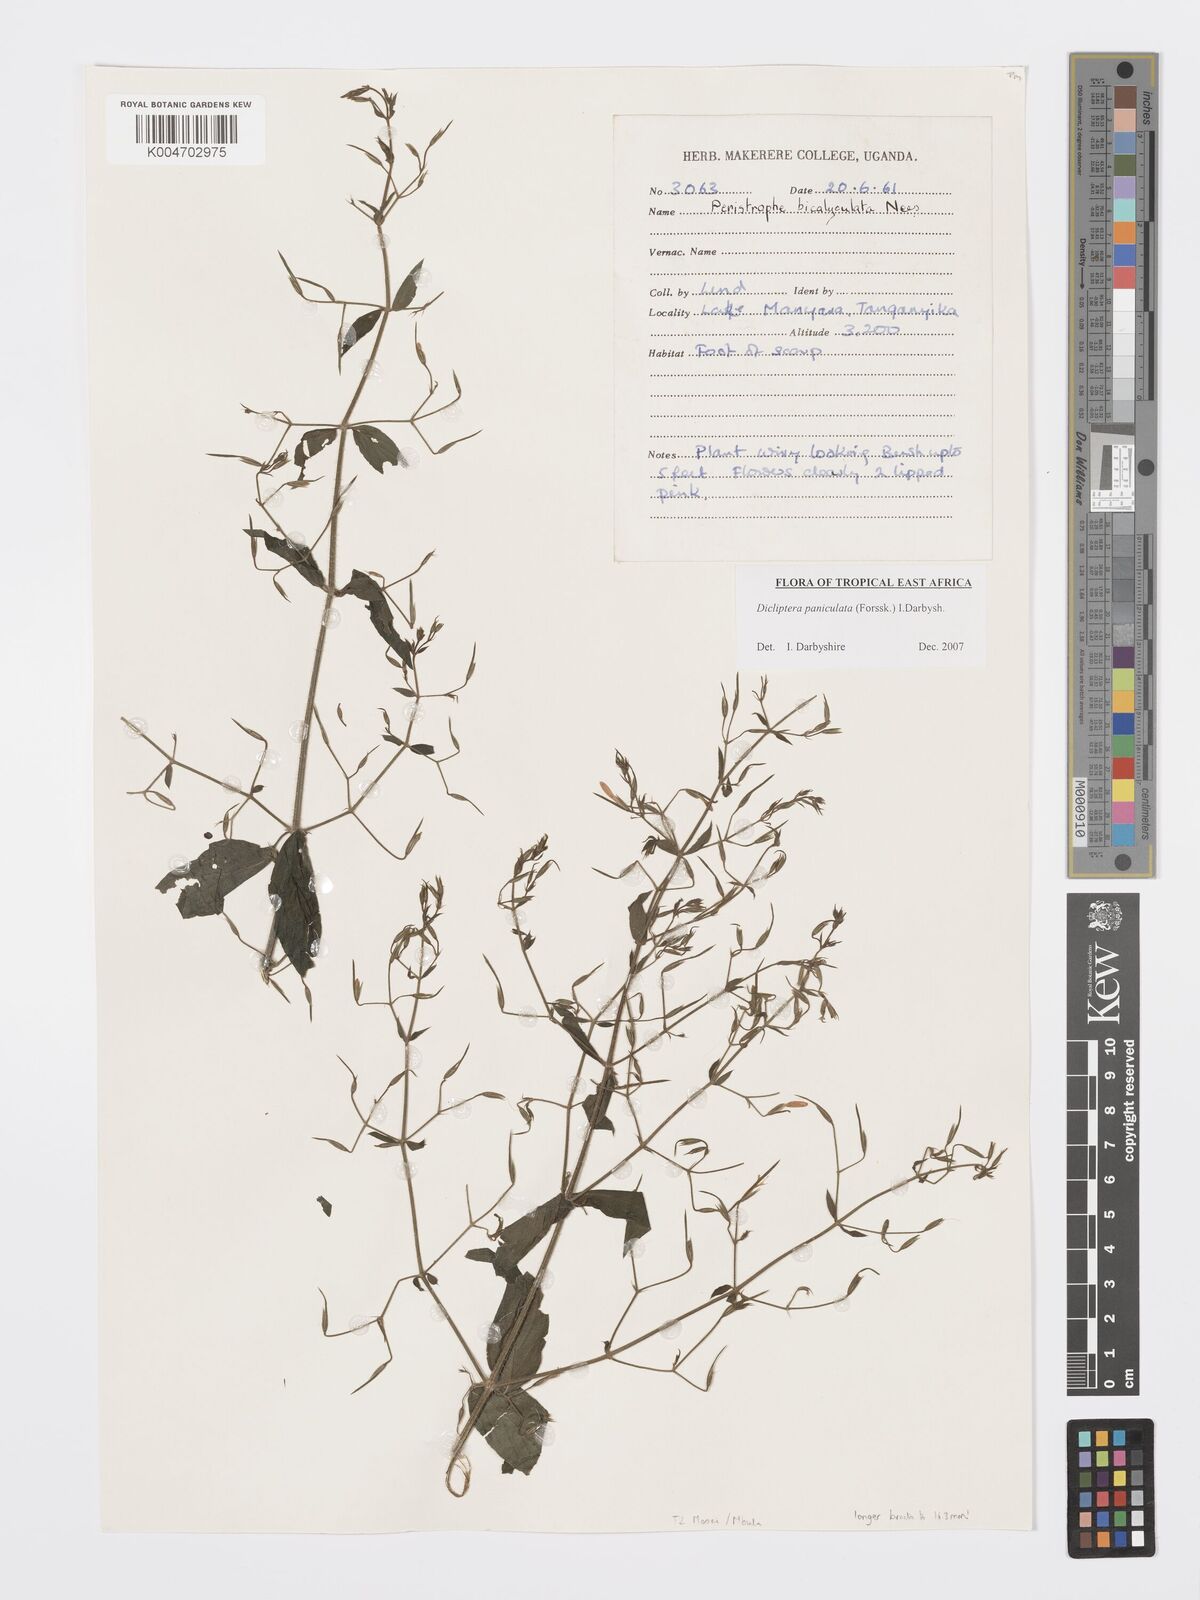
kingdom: Plantae
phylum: Tracheophyta
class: Magnoliopsida
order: Lamiales
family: Acanthaceae
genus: Dicliptera
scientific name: Dicliptera paniculata
